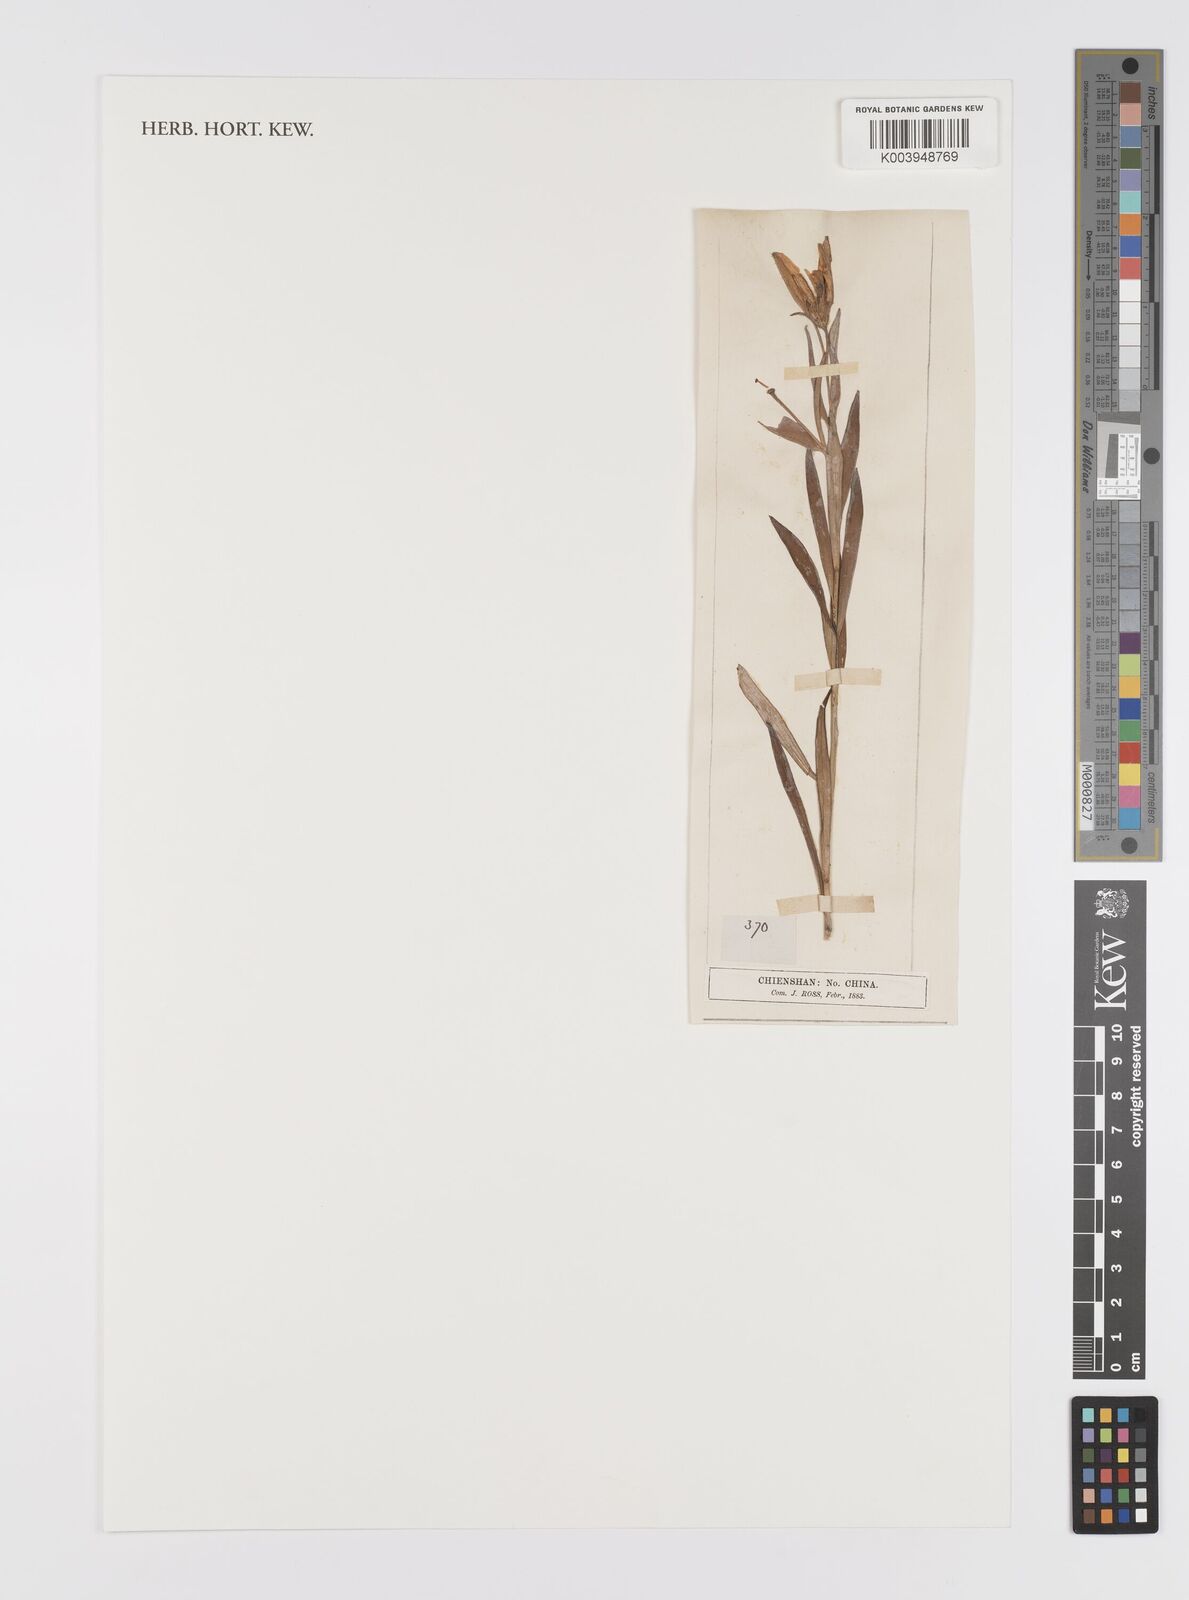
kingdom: Plantae
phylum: Tracheophyta
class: Liliopsida
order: Liliales
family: Liliaceae
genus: Lilium
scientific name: Lilium concolor
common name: Morning-star lily
